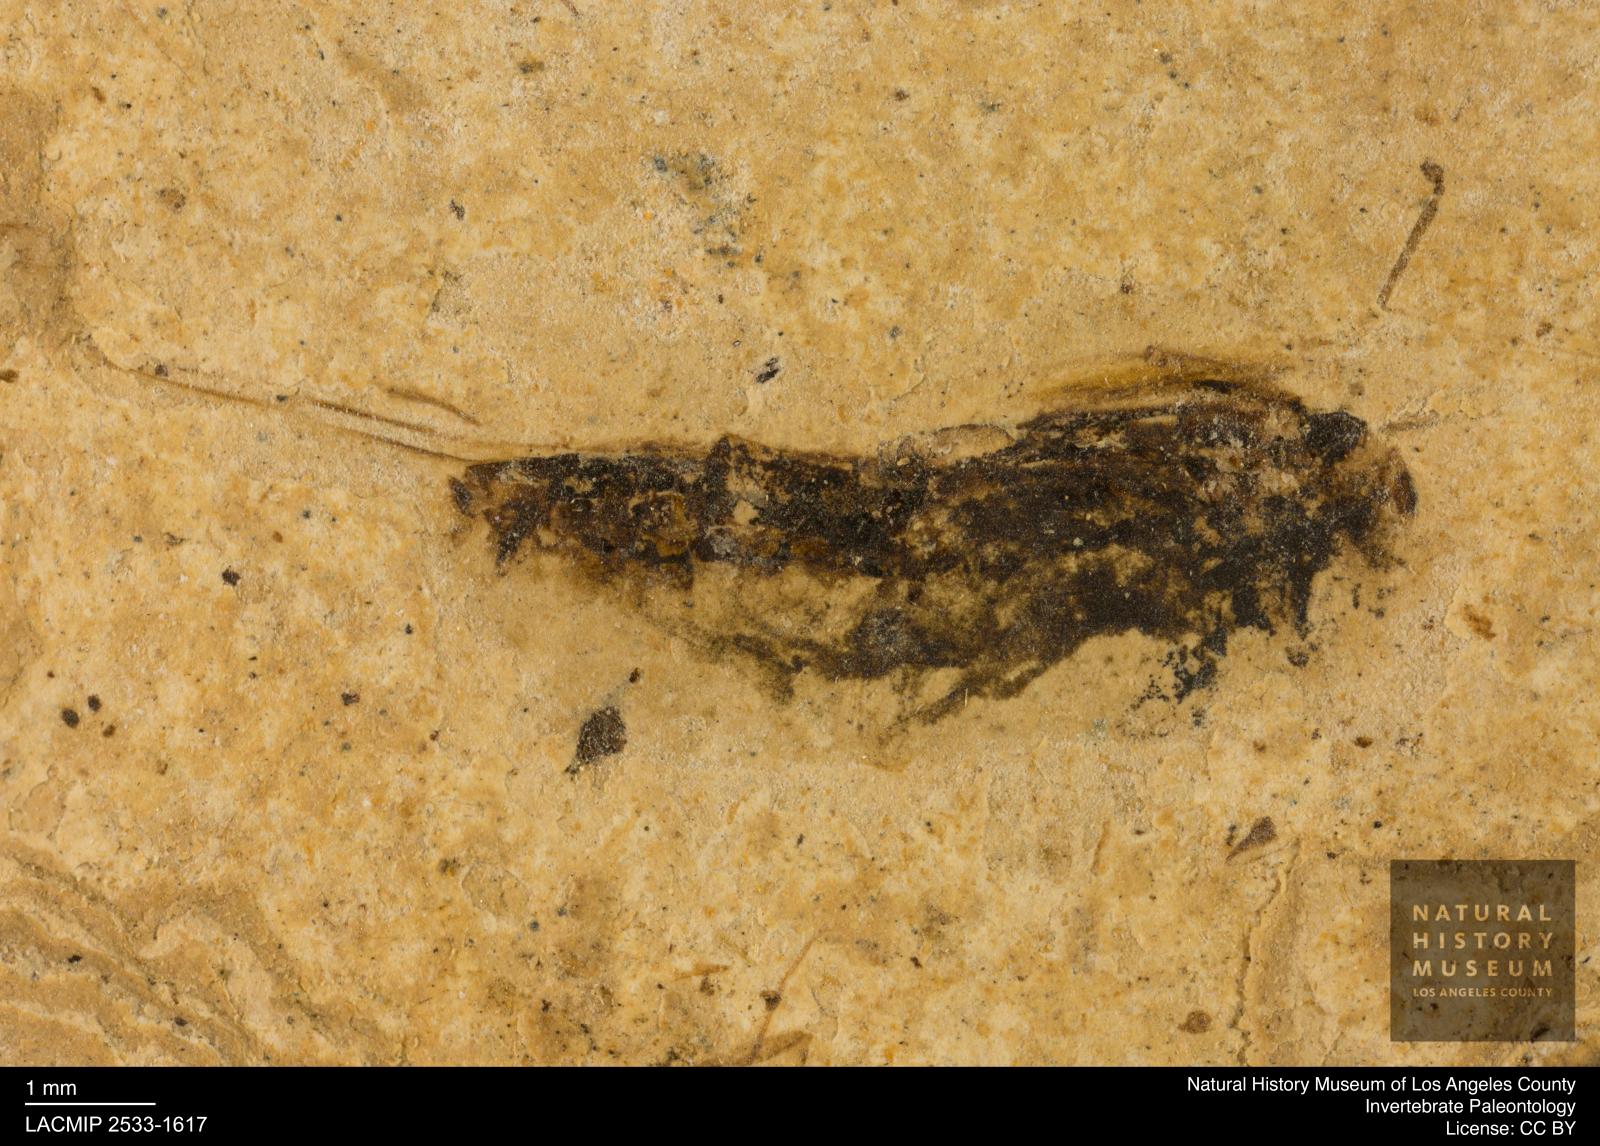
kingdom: Animalia
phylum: Arthropoda
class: Insecta
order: Hemiptera
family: Notonectidae
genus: Notonecta
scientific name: Notonecta
